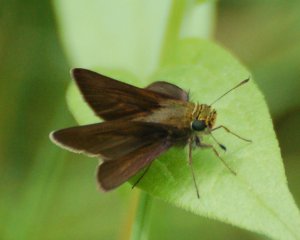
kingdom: Animalia
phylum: Arthropoda
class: Insecta
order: Lepidoptera
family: Hesperiidae
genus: Euphyes
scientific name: Euphyes vestris
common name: Dun Skipper
